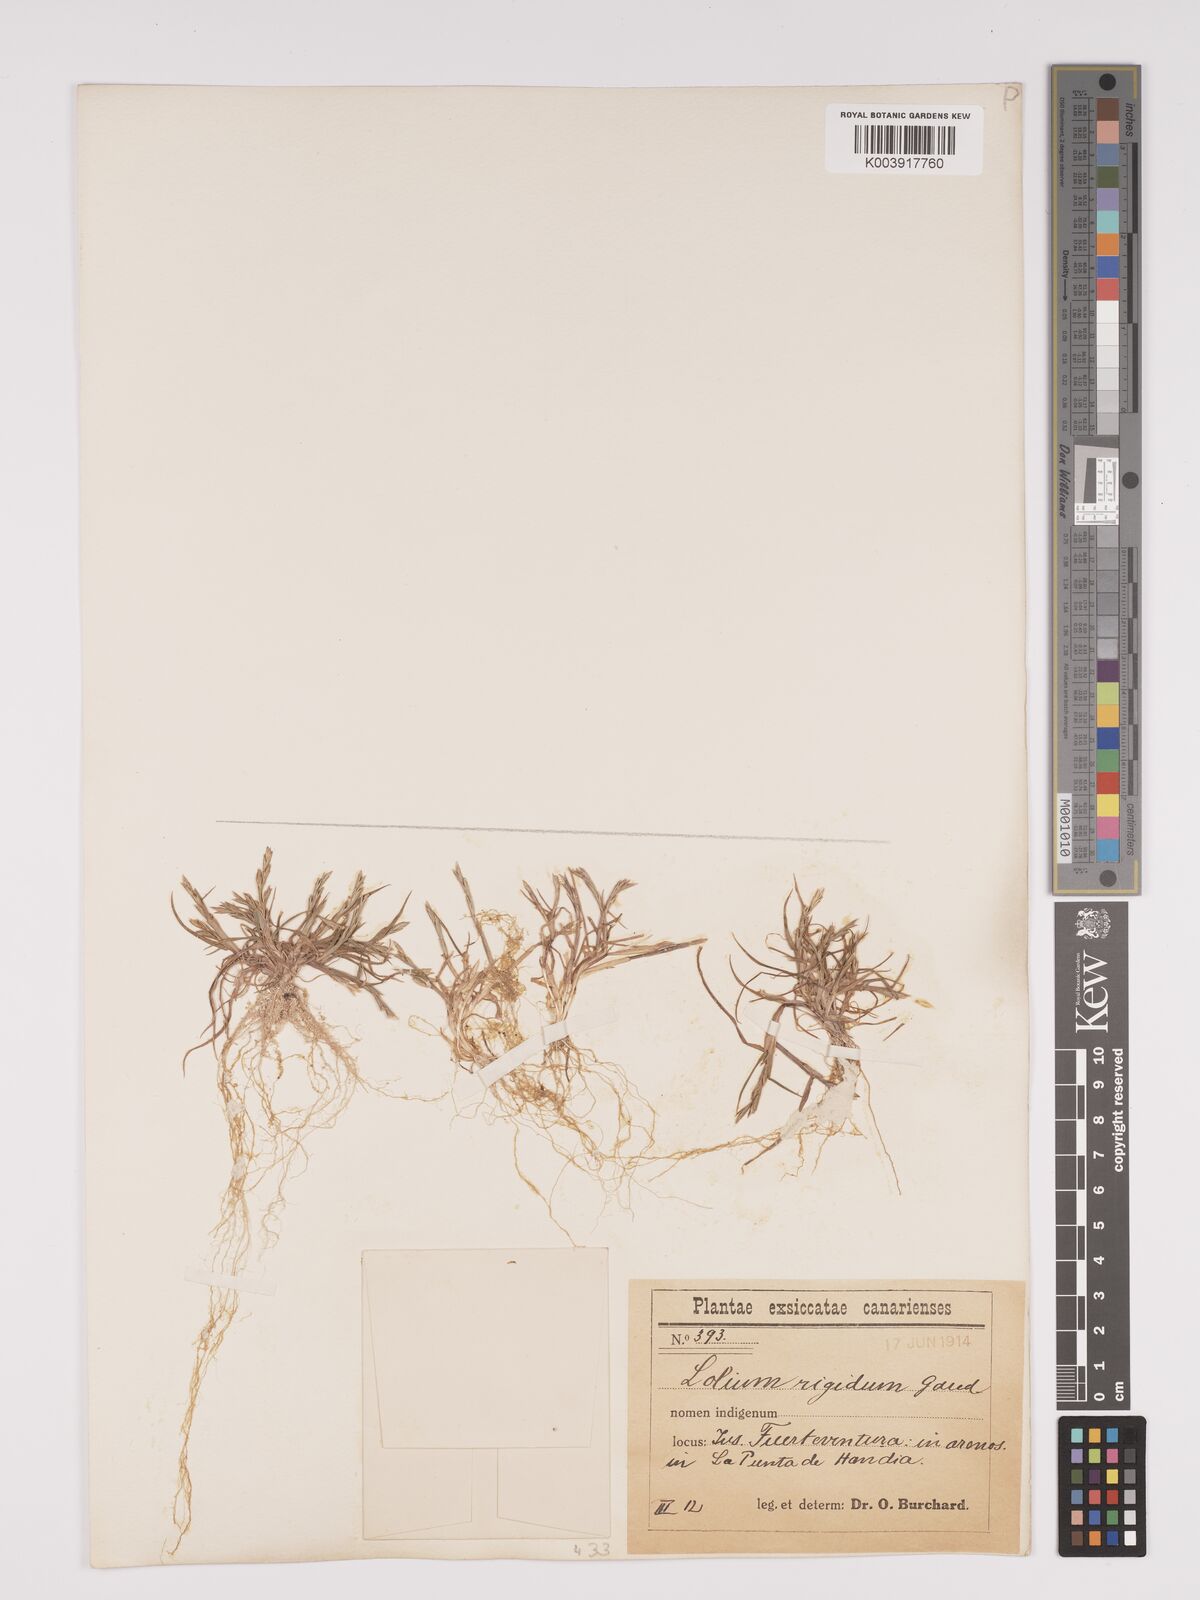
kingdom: Plantae
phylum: Tracheophyta
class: Liliopsida
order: Poales
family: Poaceae
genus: Lolium
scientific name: Lolium rigidum
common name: Wimmera ryegrass
